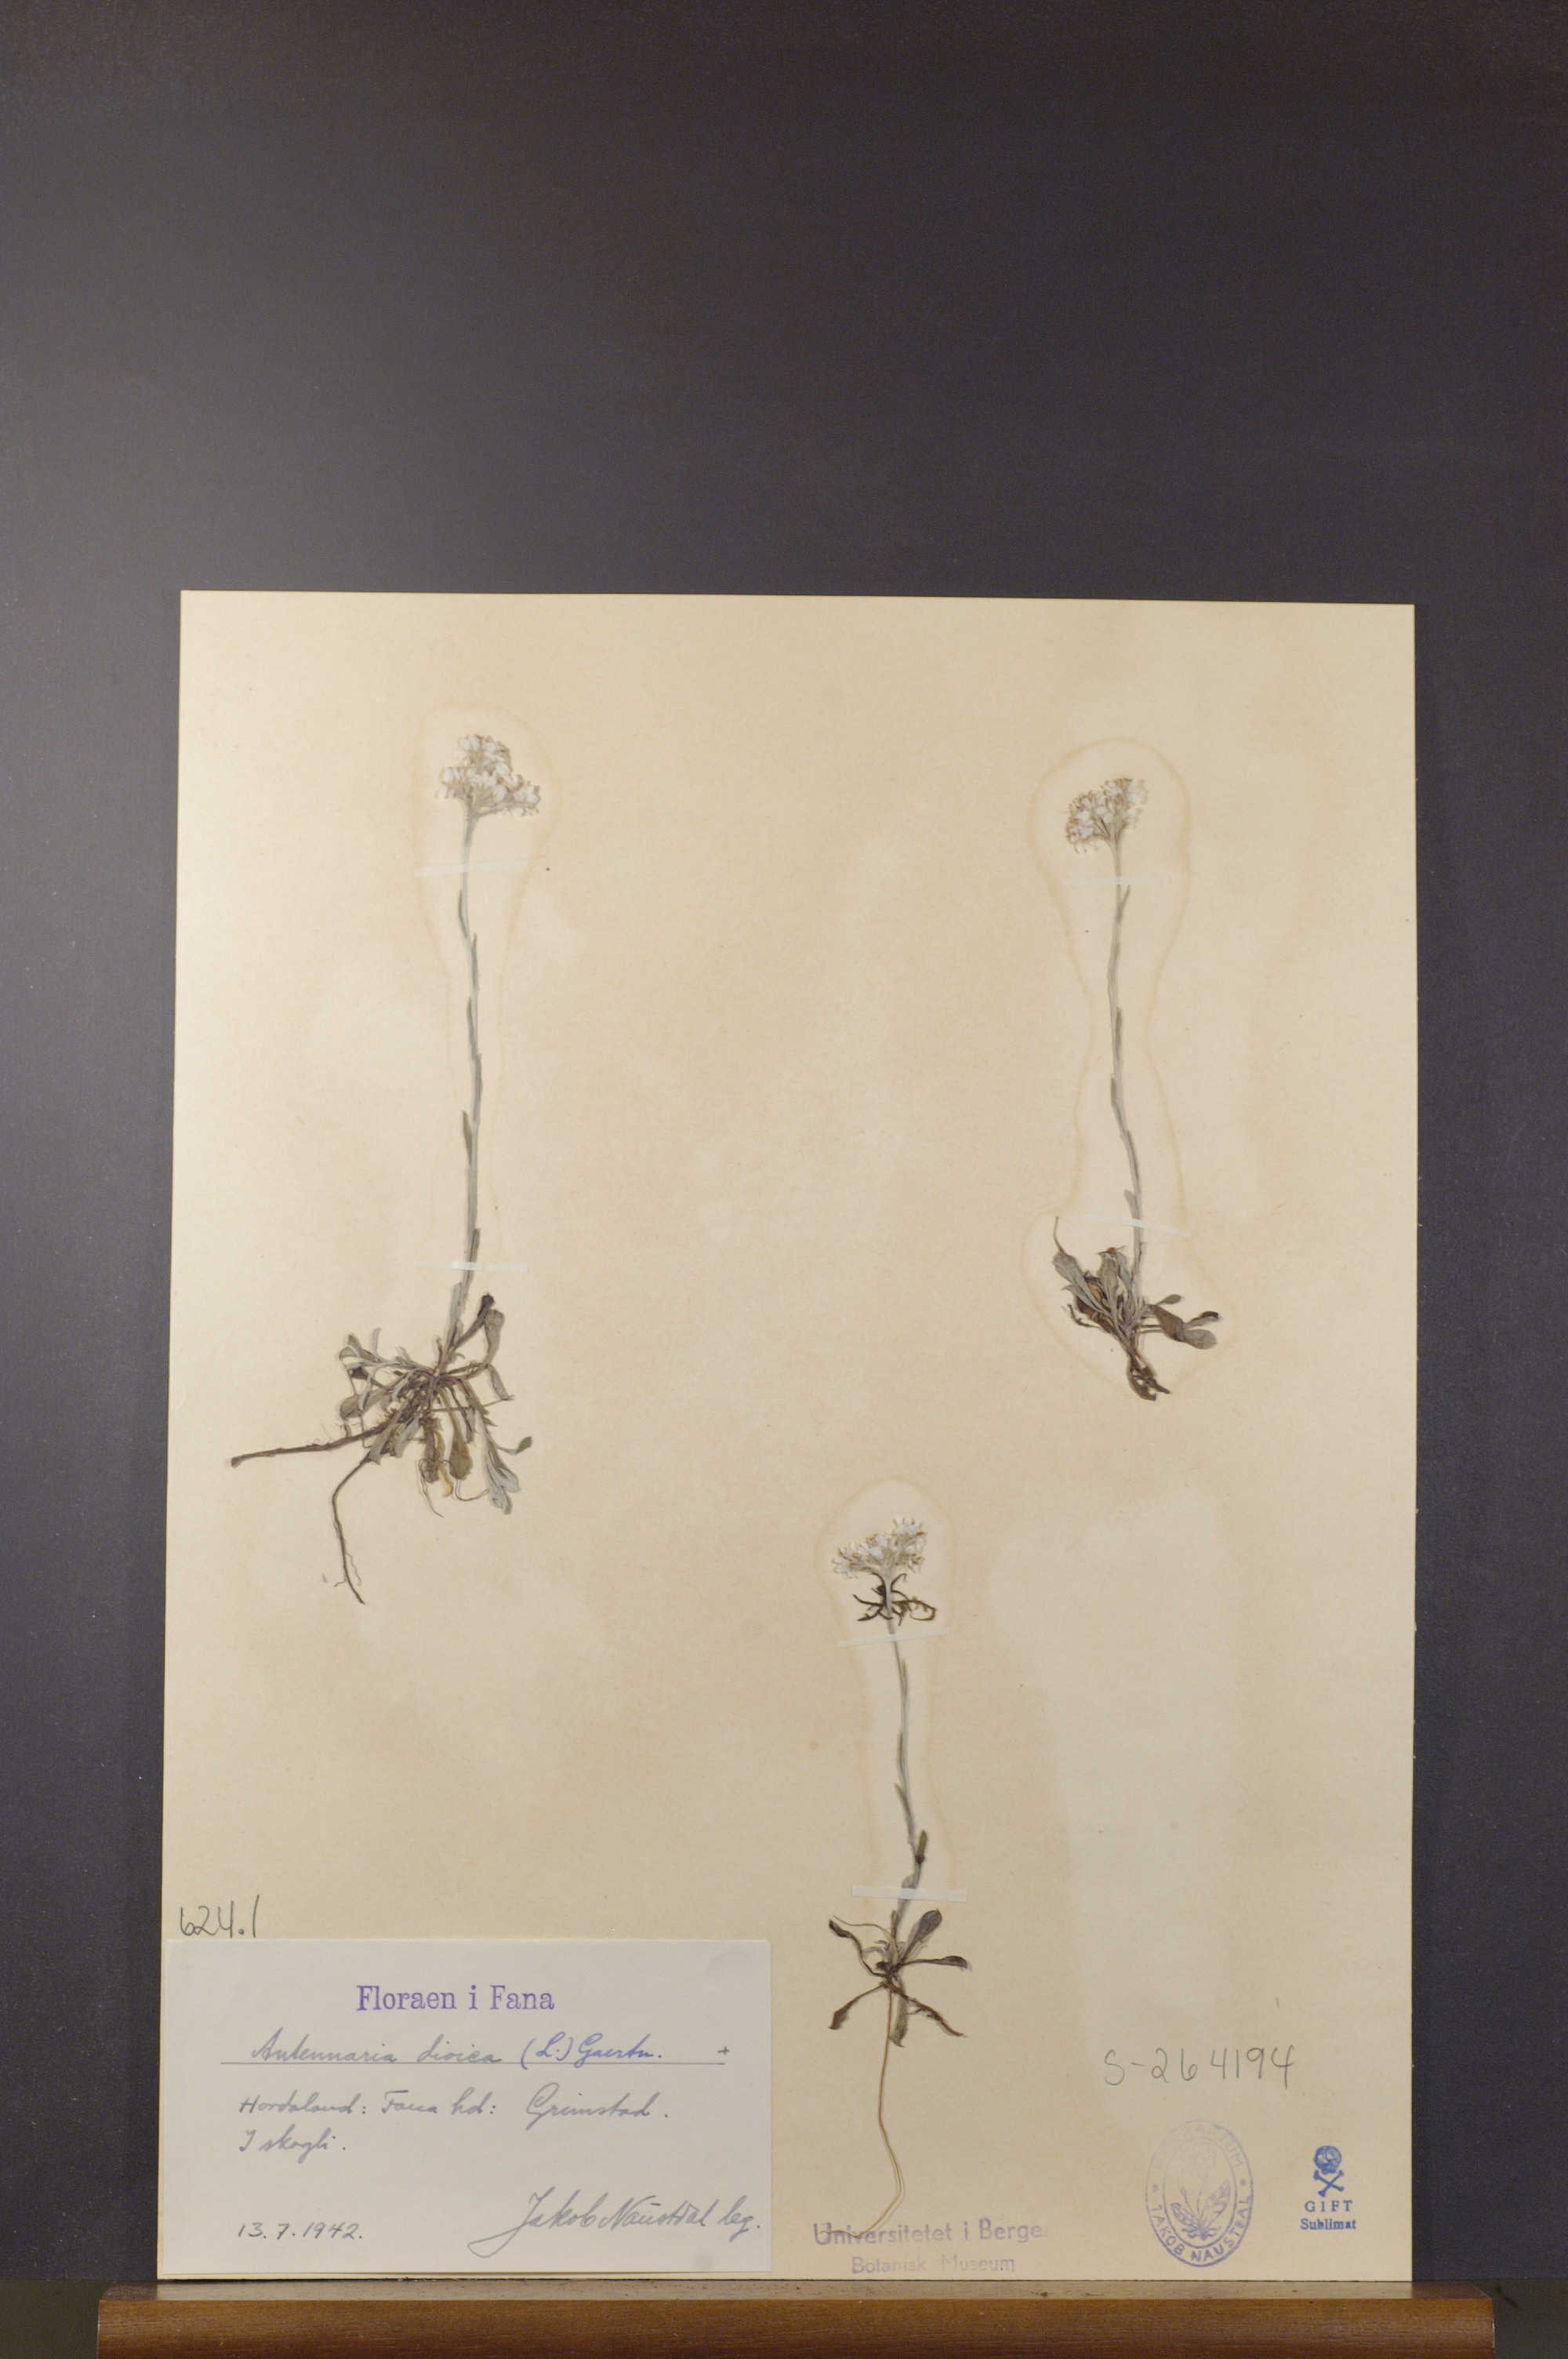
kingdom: Plantae
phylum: Tracheophyta
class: Magnoliopsida
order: Asterales
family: Asteraceae
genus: Antennaria
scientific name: Antennaria dioica
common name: Mountain everlasting
